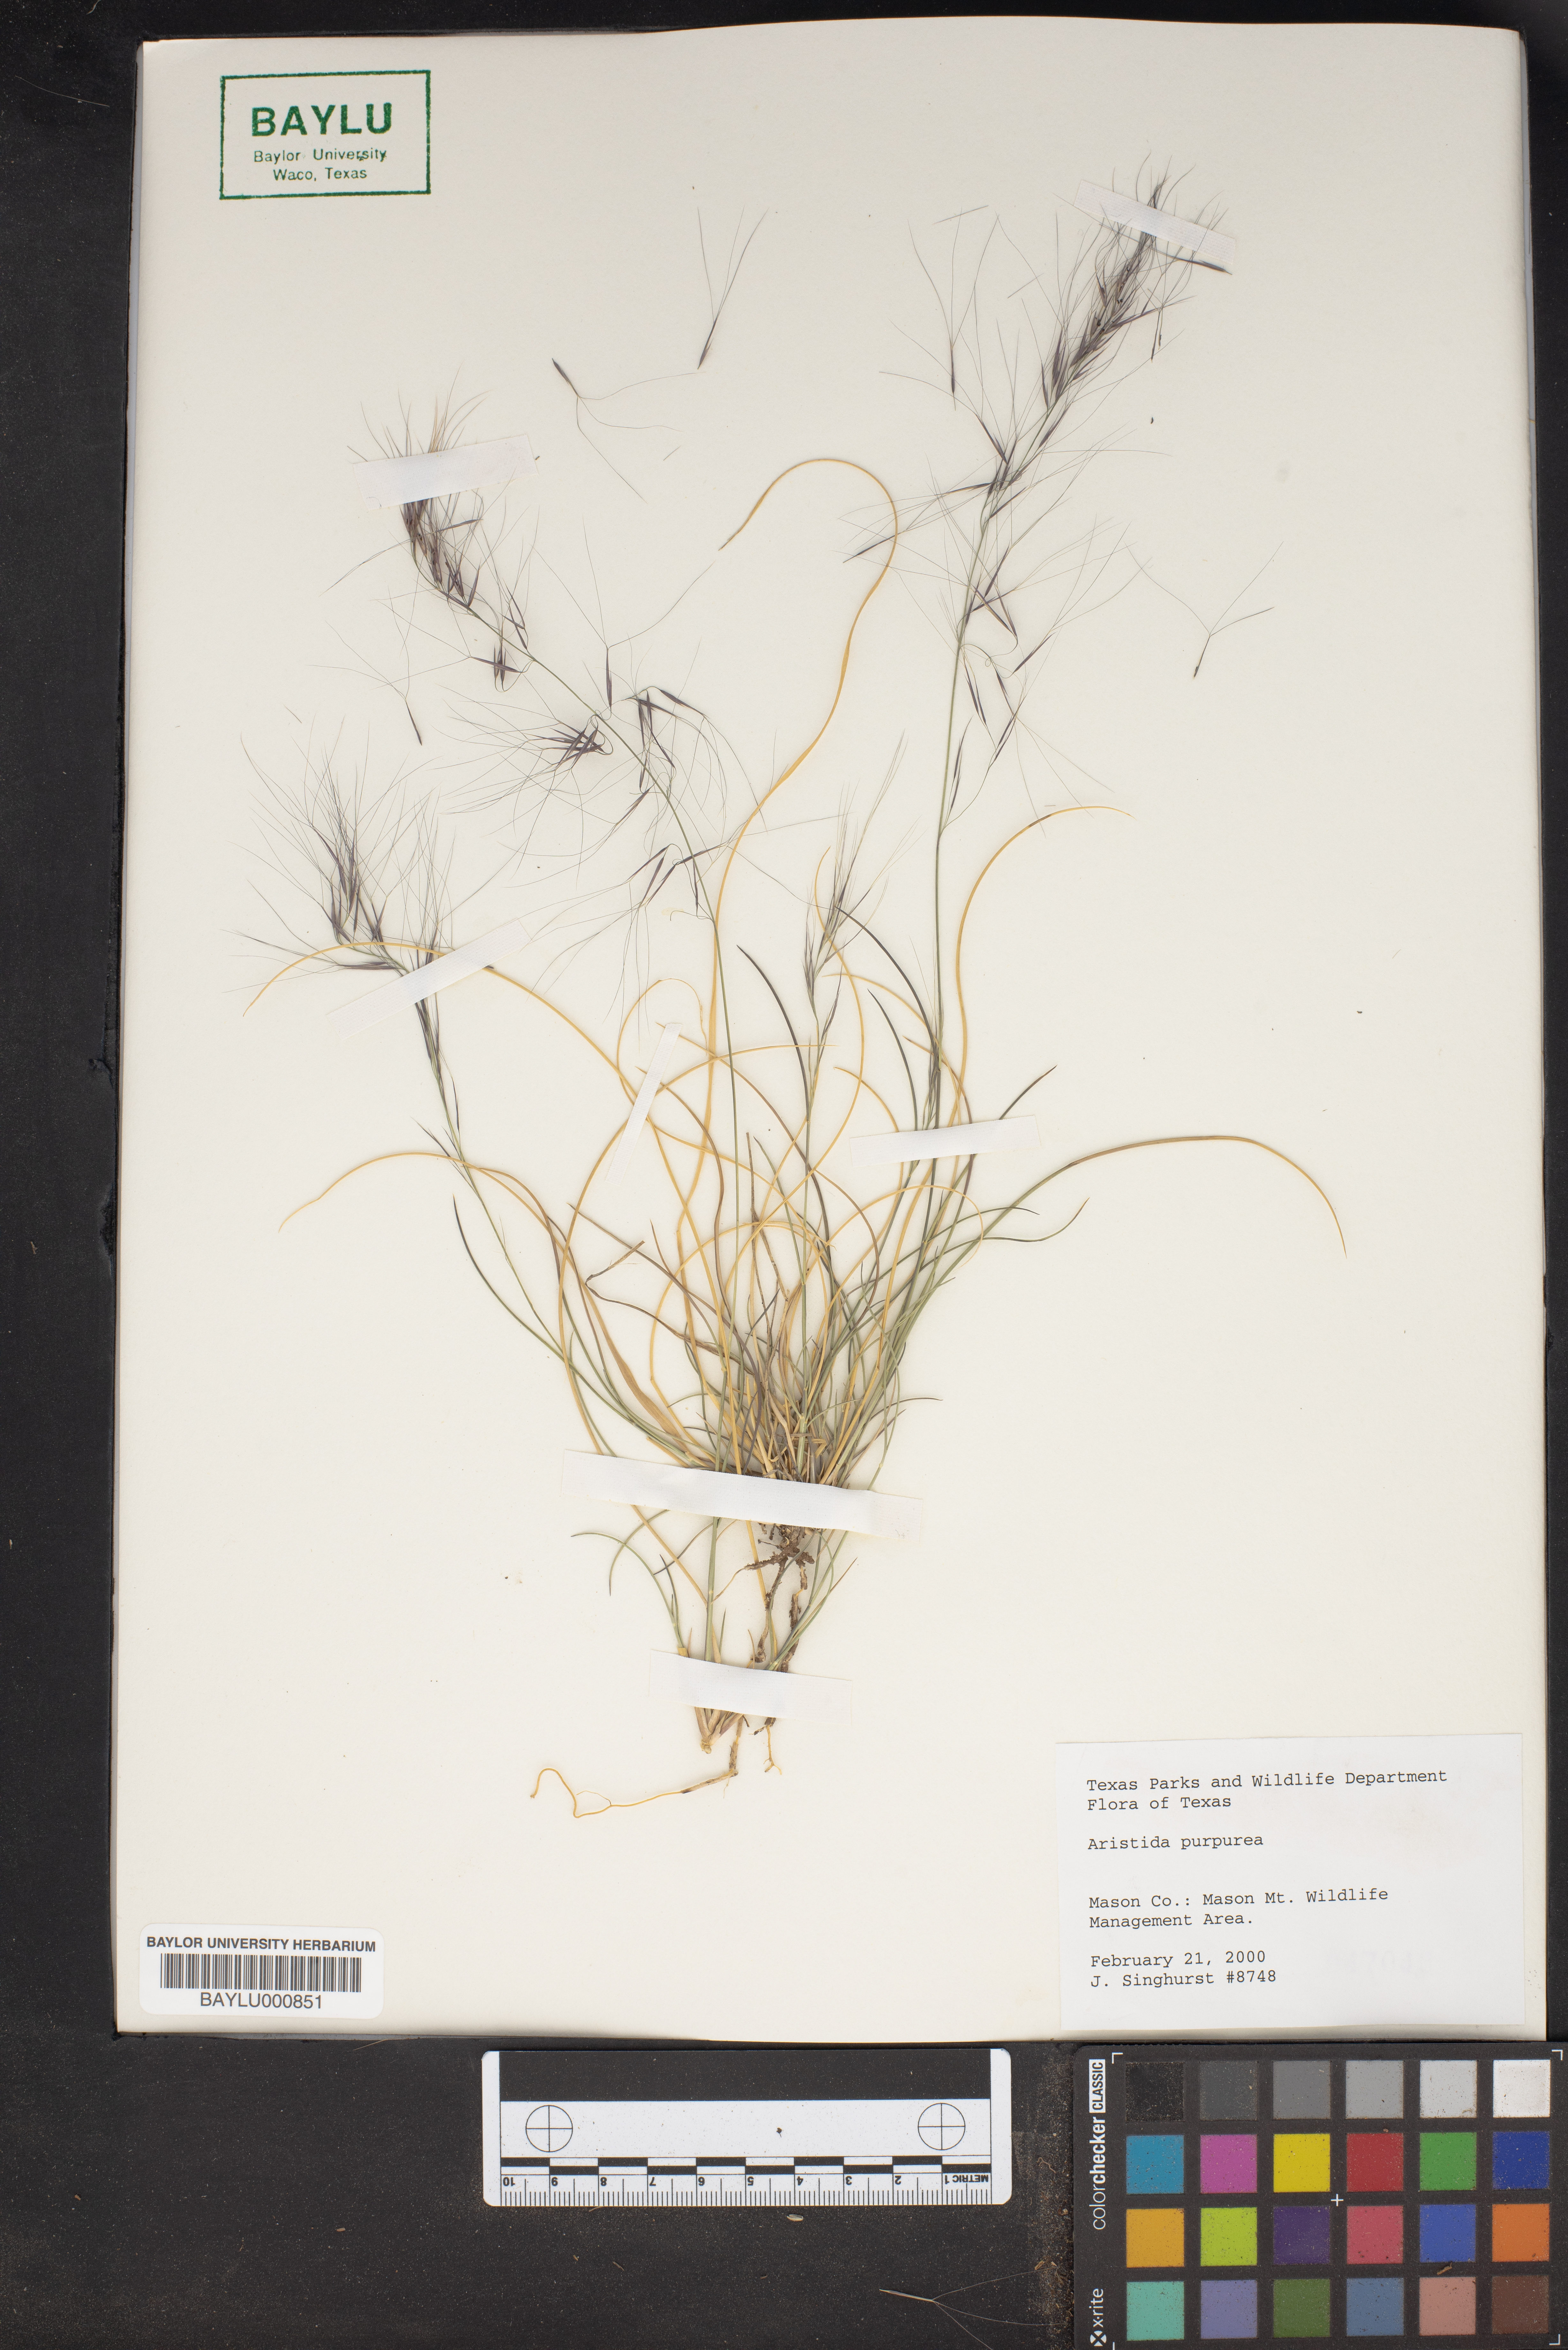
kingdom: Plantae
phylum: Tracheophyta
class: Liliopsida
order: Poales
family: Poaceae
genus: Aristida
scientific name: Aristida purpurea
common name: Purple threeawn
